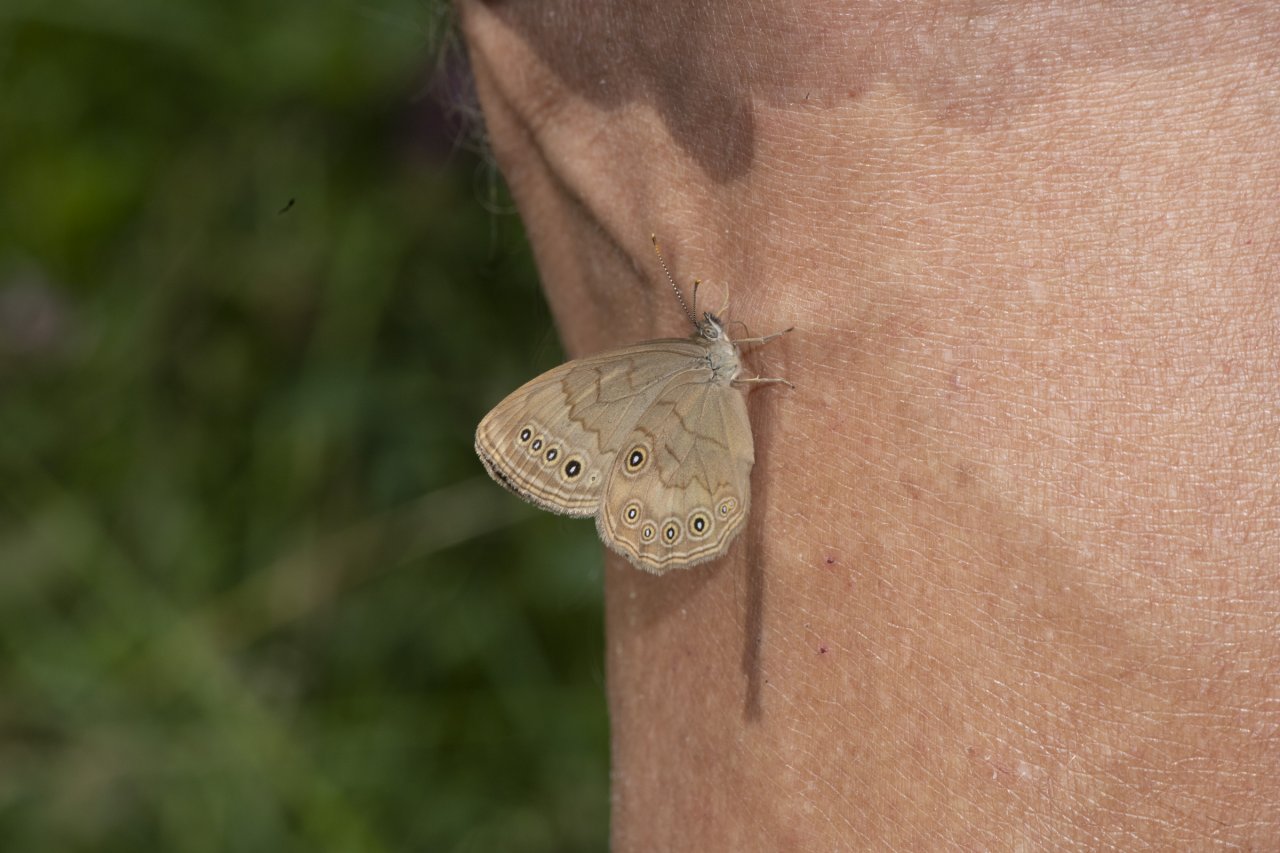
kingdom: Animalia
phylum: Arthropoda
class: Insecta
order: Lepidoptera
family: Nymphalidae
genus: Lethe
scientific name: Lethe eurydice
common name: Eyed Brown
